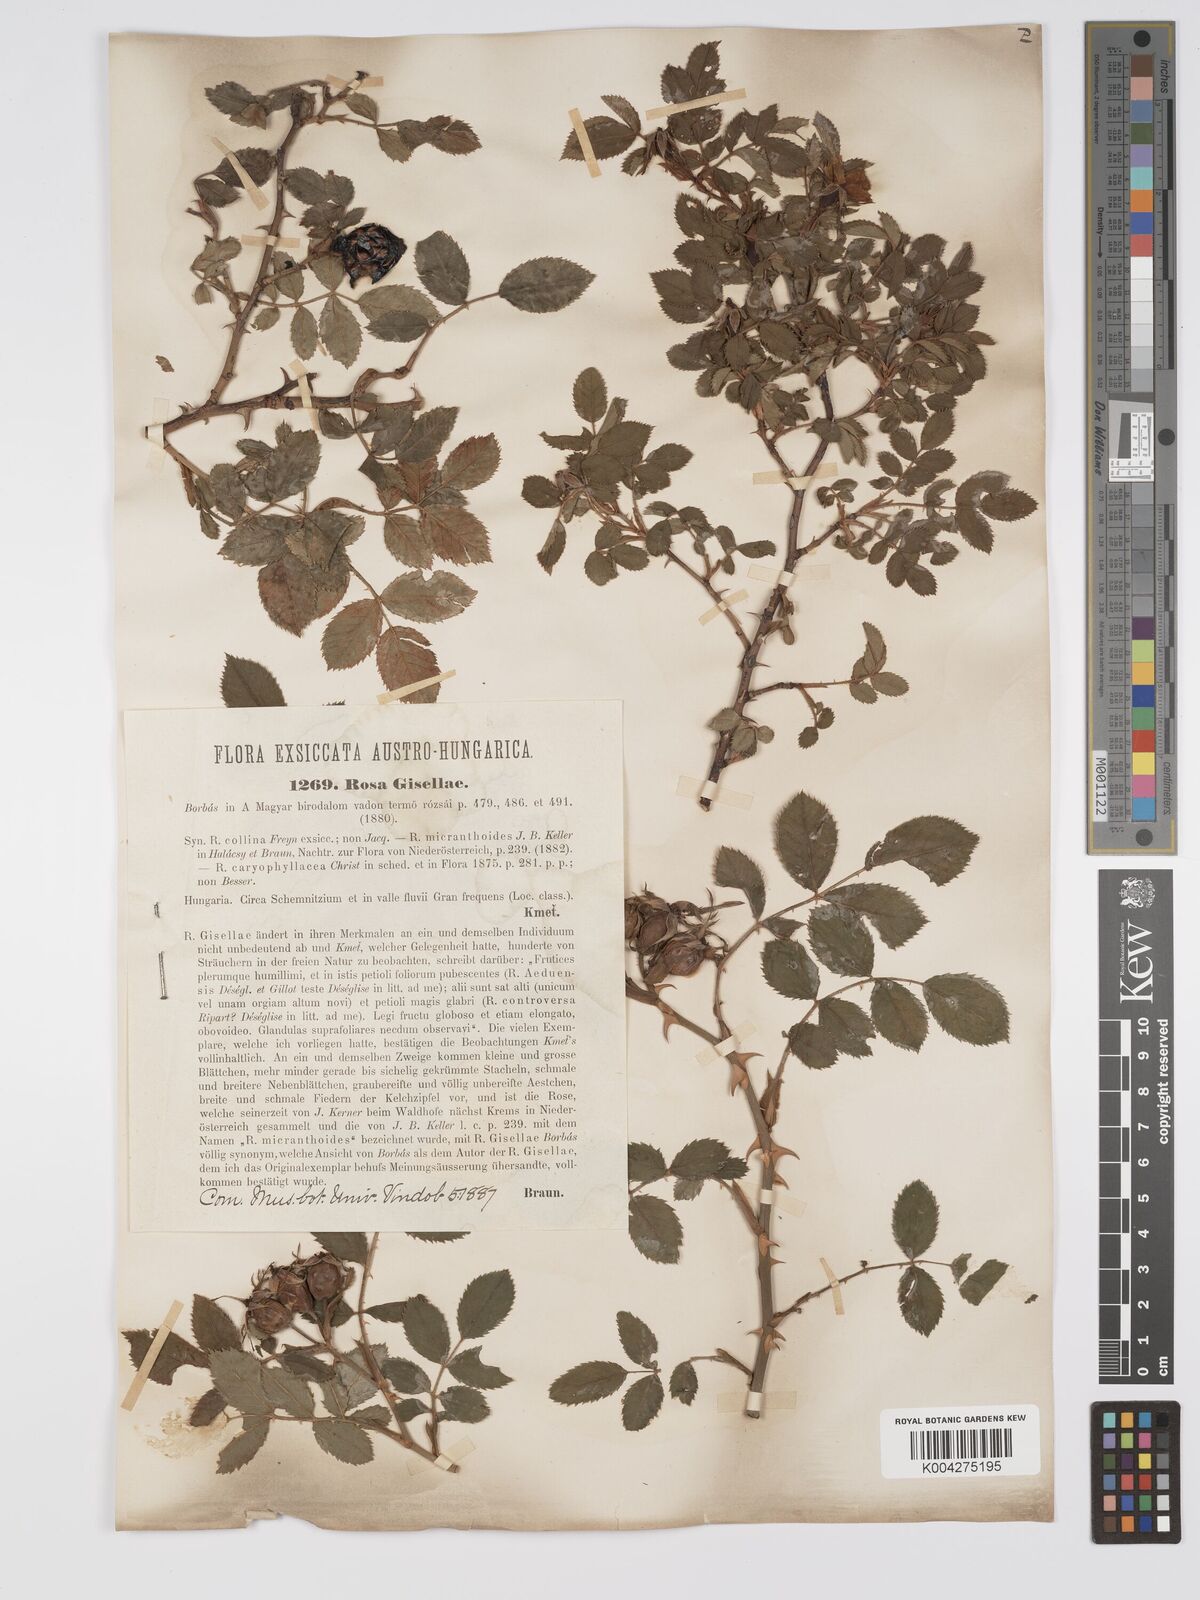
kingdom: Plantae
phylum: Tracheophyta
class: Magnoliopsida
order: Rosales
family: Rosaceae
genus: Rosa
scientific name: Rosa
